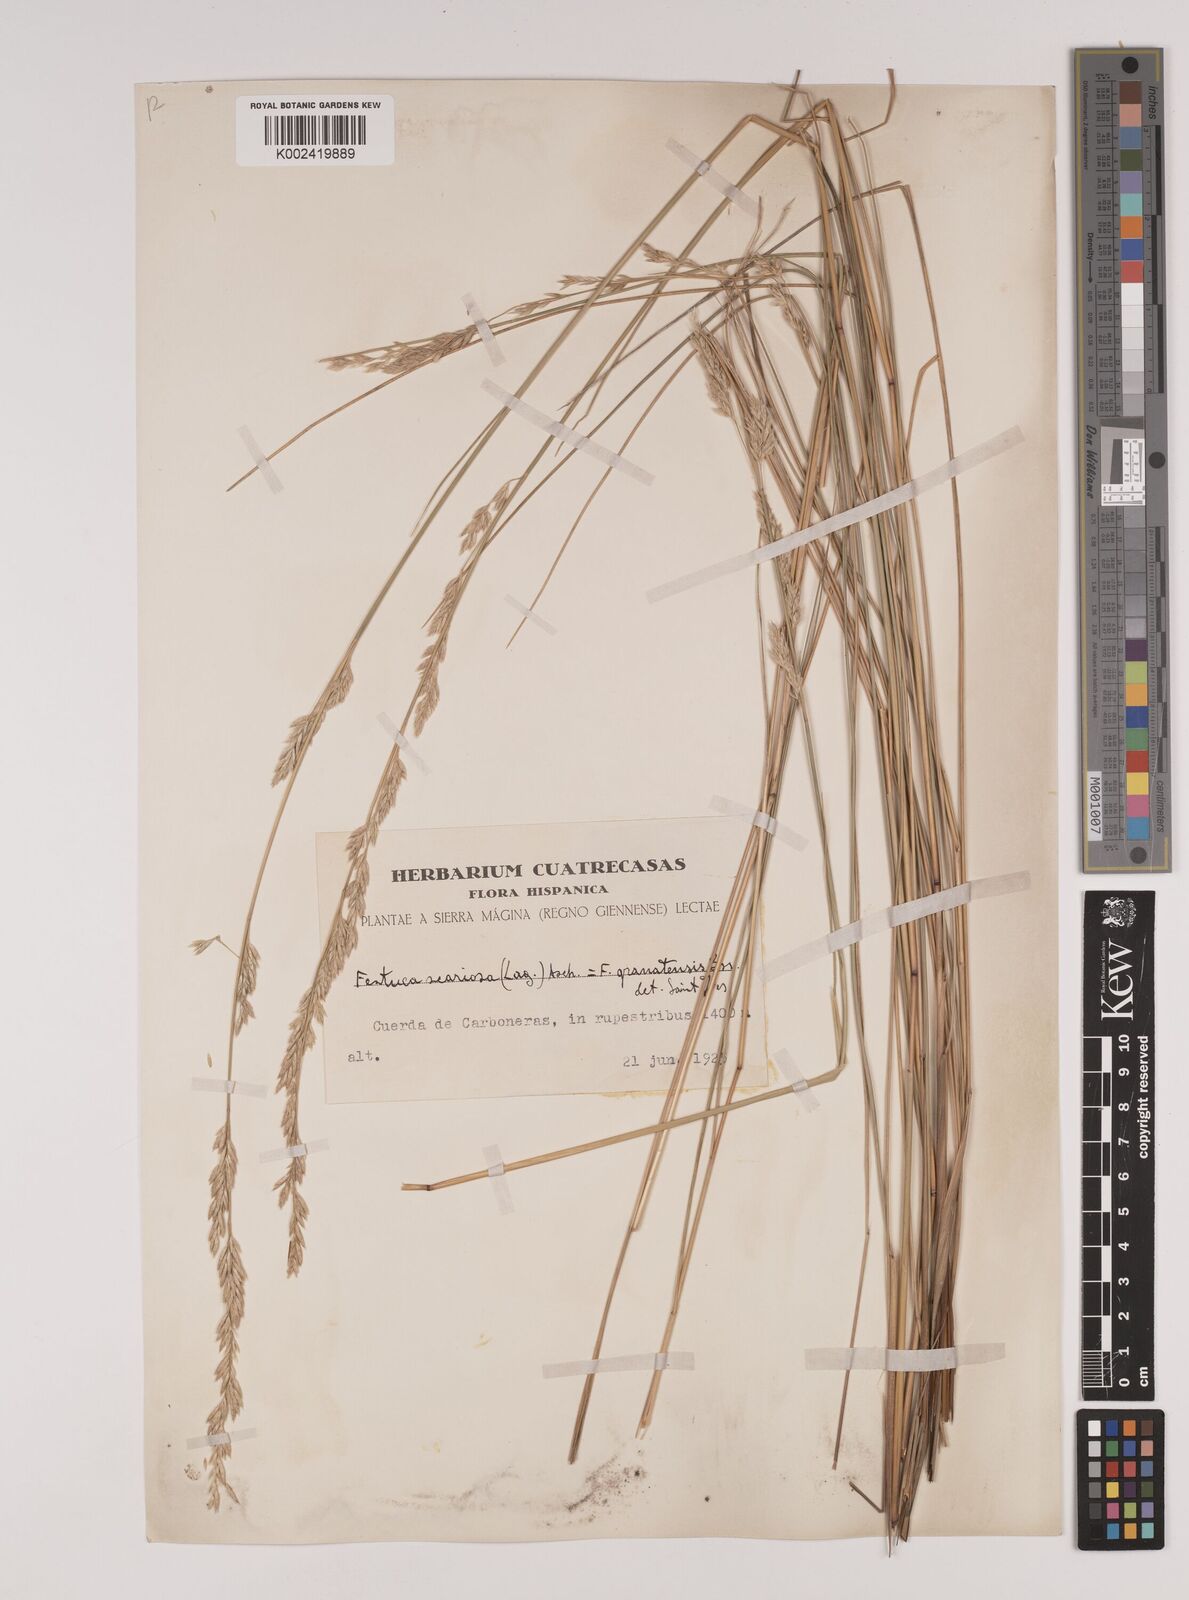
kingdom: Plantae
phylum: Tracheophyta
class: Liliopsida
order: Poales
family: Poaceae
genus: Festuca
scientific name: Festuca scariosa
